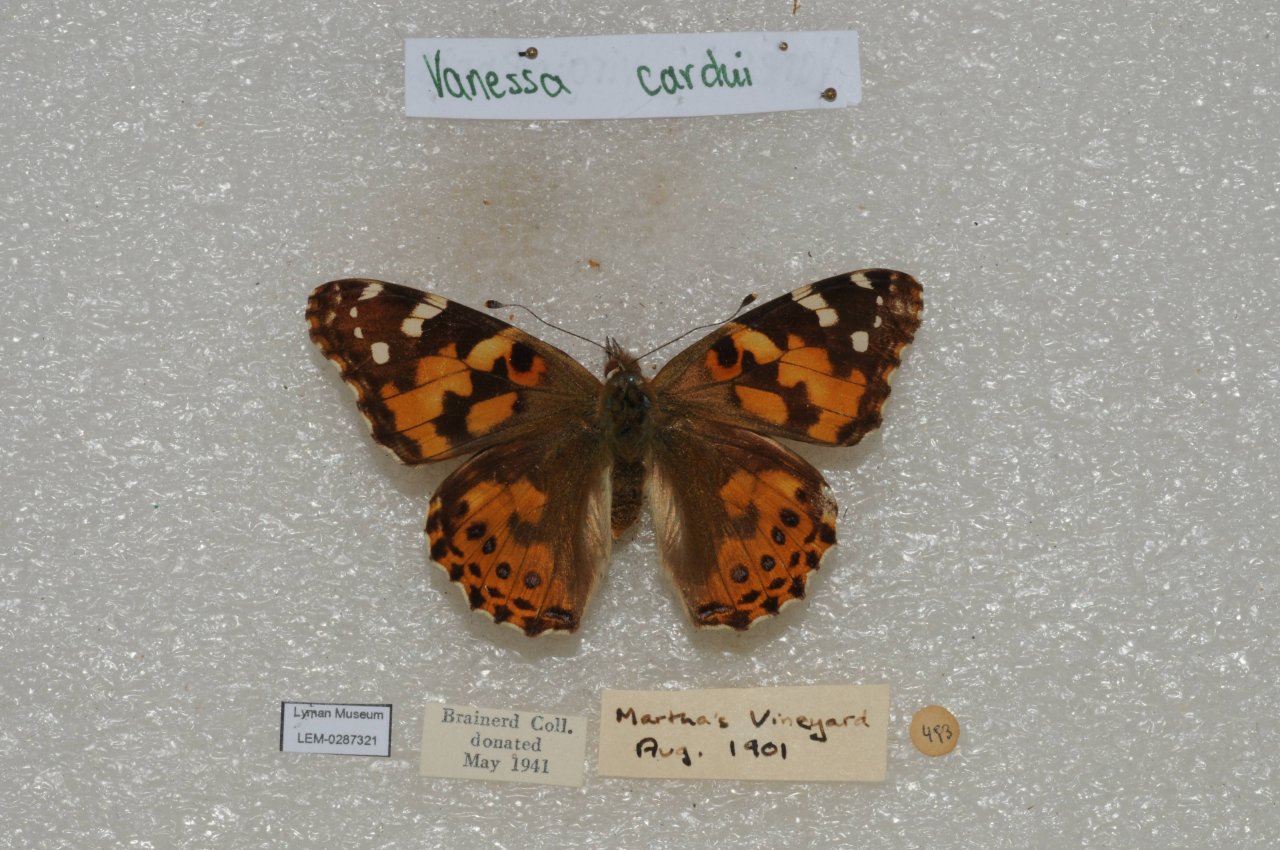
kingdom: Animalia
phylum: Arthropoda
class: Insecta
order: Lepidoptera
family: Nymphalidae
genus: Vanessa
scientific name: Vanessa cardui
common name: Painted Lady
